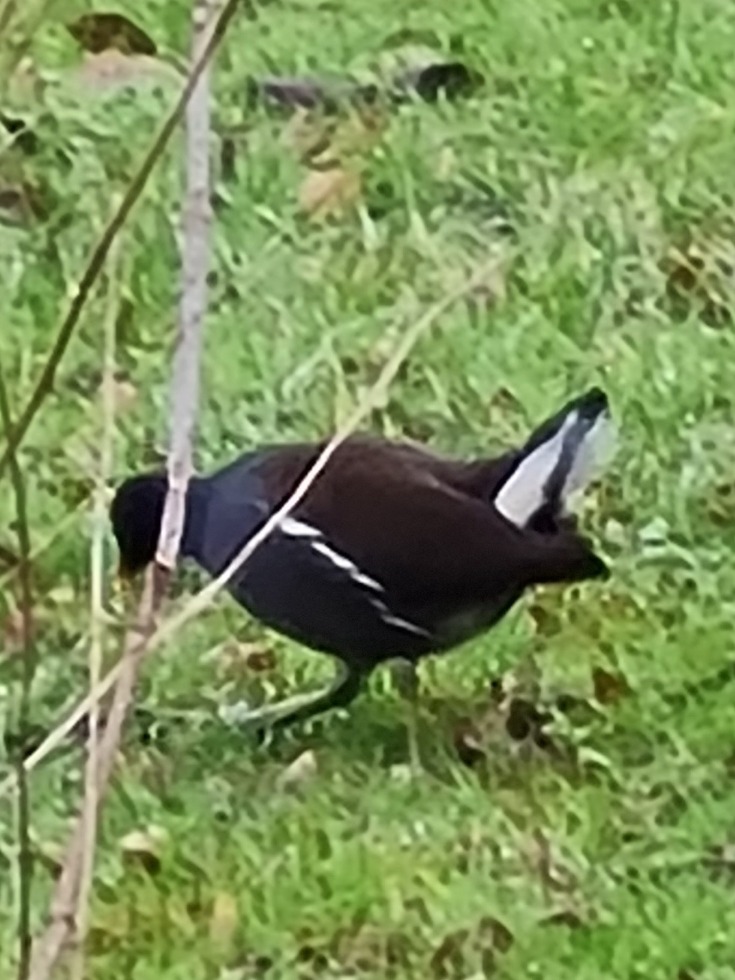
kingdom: Animalia
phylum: Chordata
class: Aves
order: Gruiformes
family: Rallidae
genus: Gallinula
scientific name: Gallinula chloropus
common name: Grønbenet rørhøne
